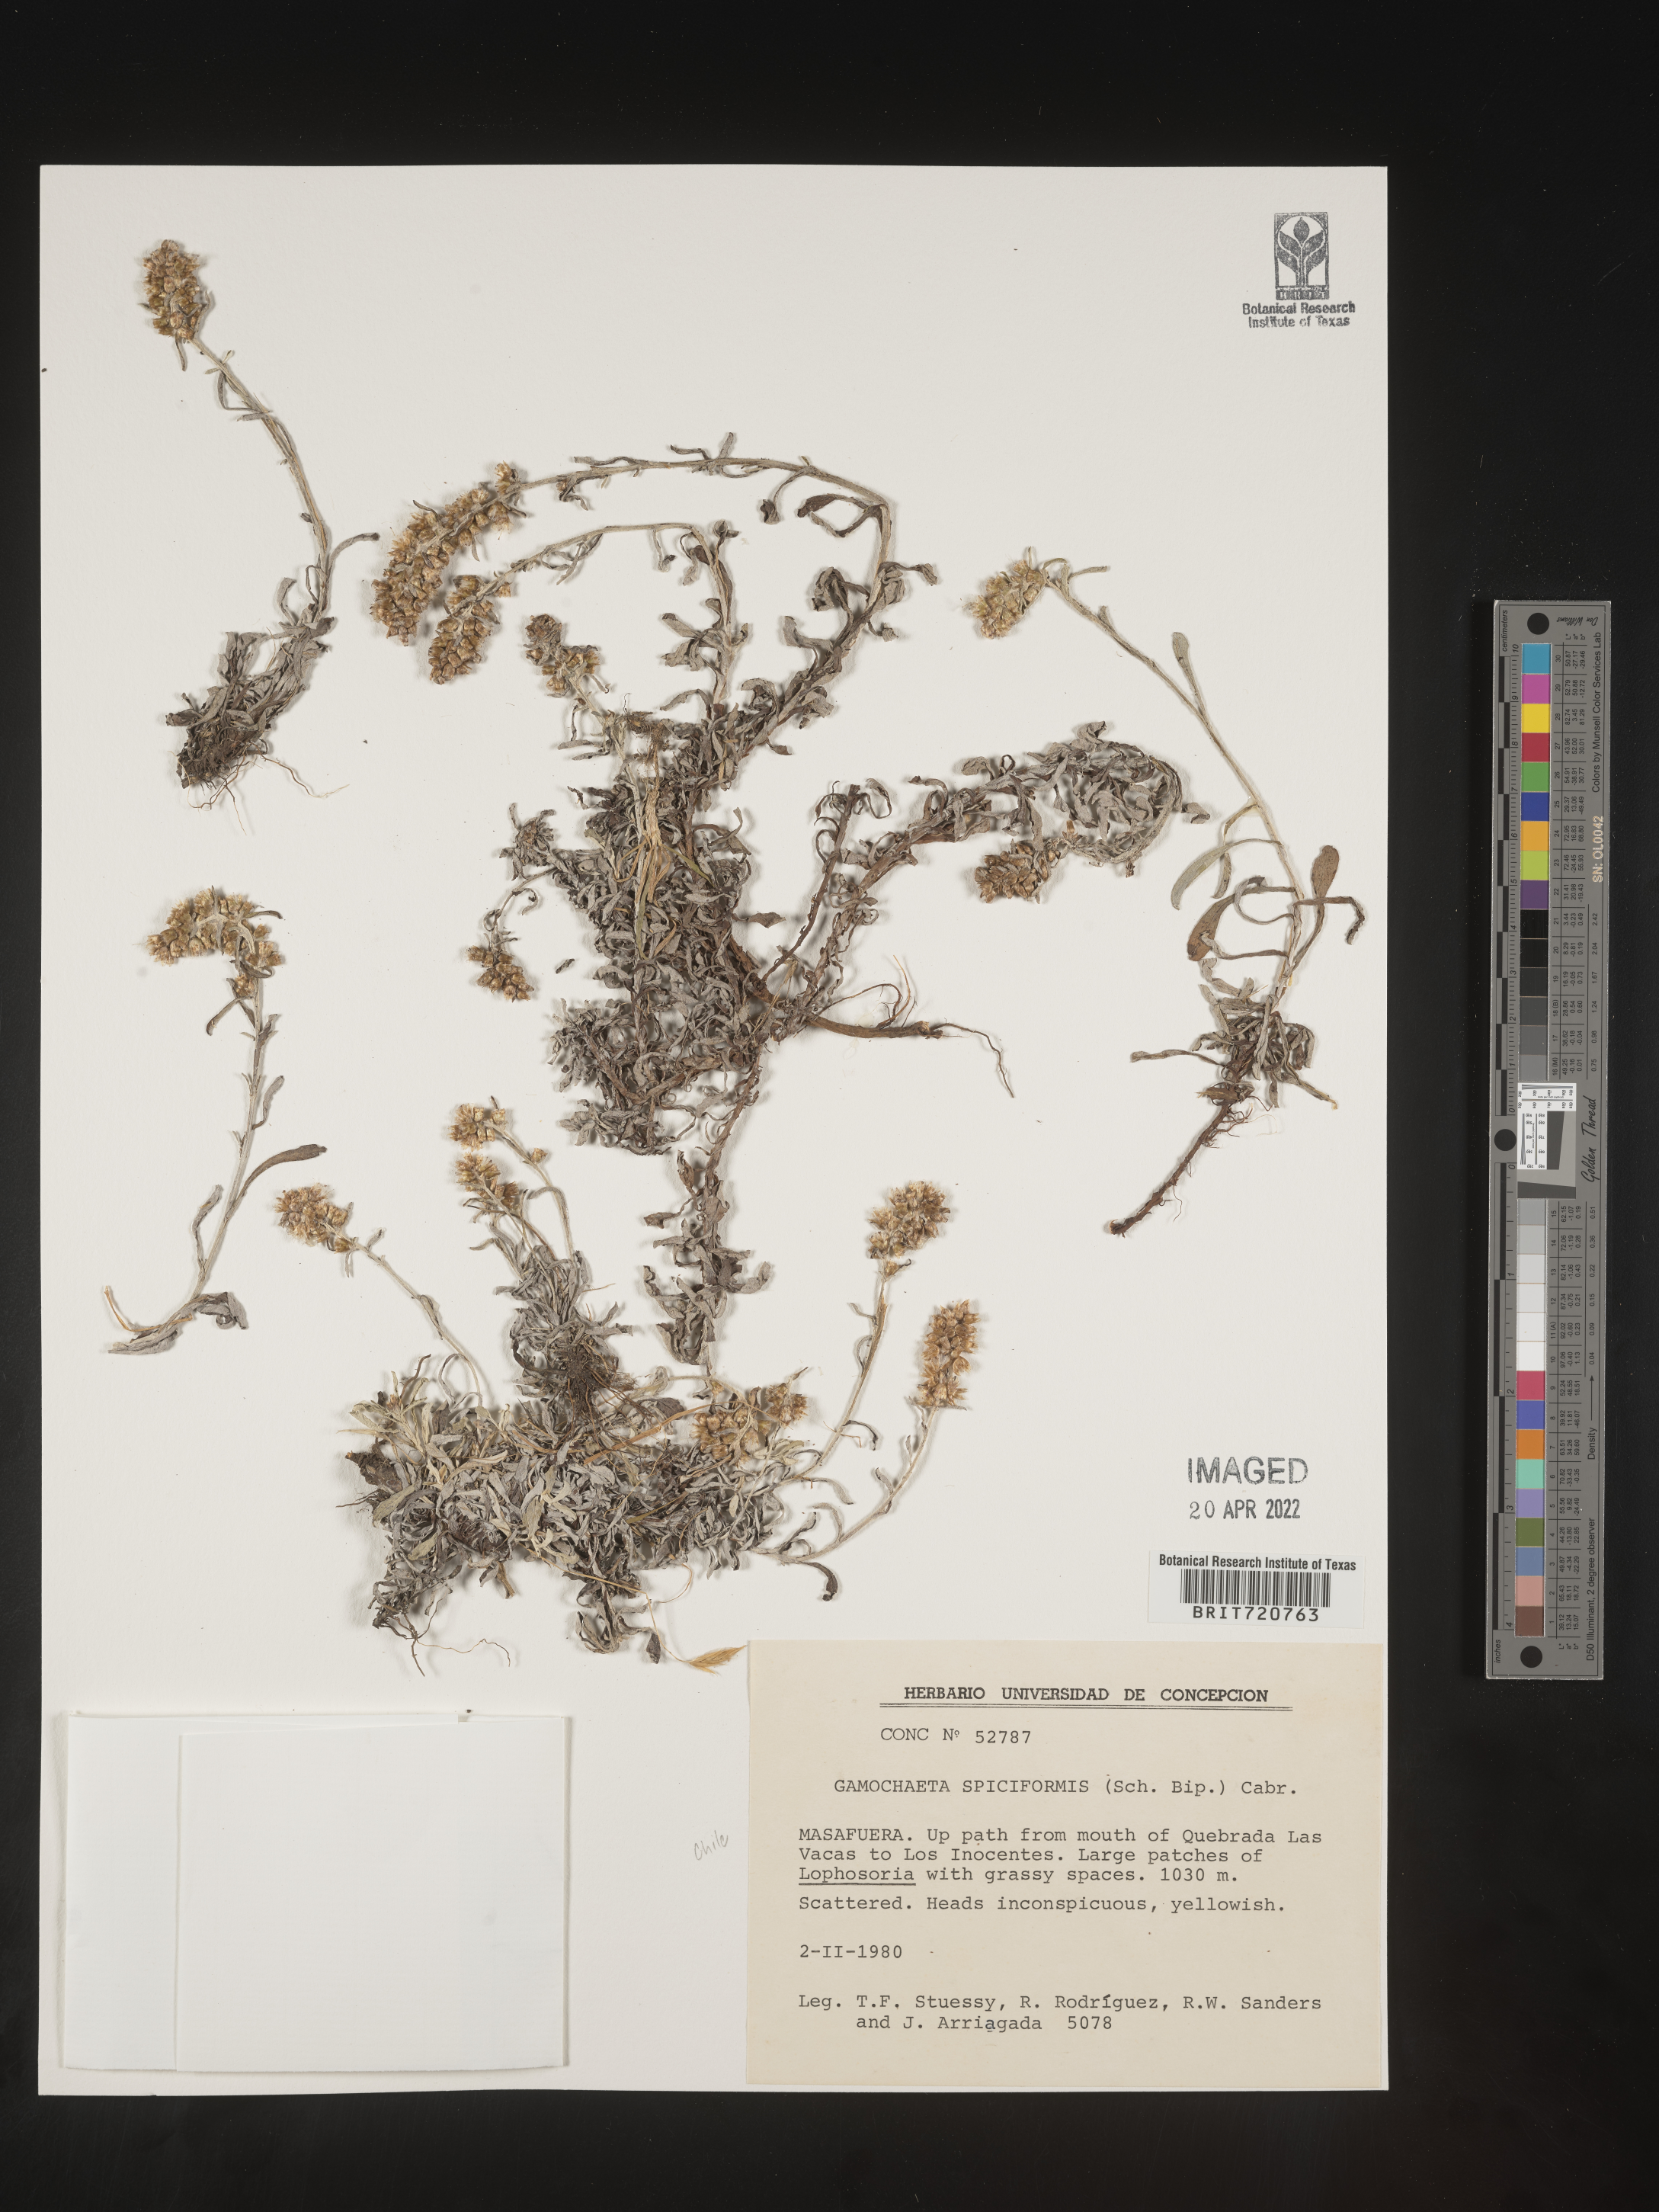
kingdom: Plantae
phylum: Tracheophyta
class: Magnoliopsida
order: Asterales
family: Asteraceae
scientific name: Asteraceae
